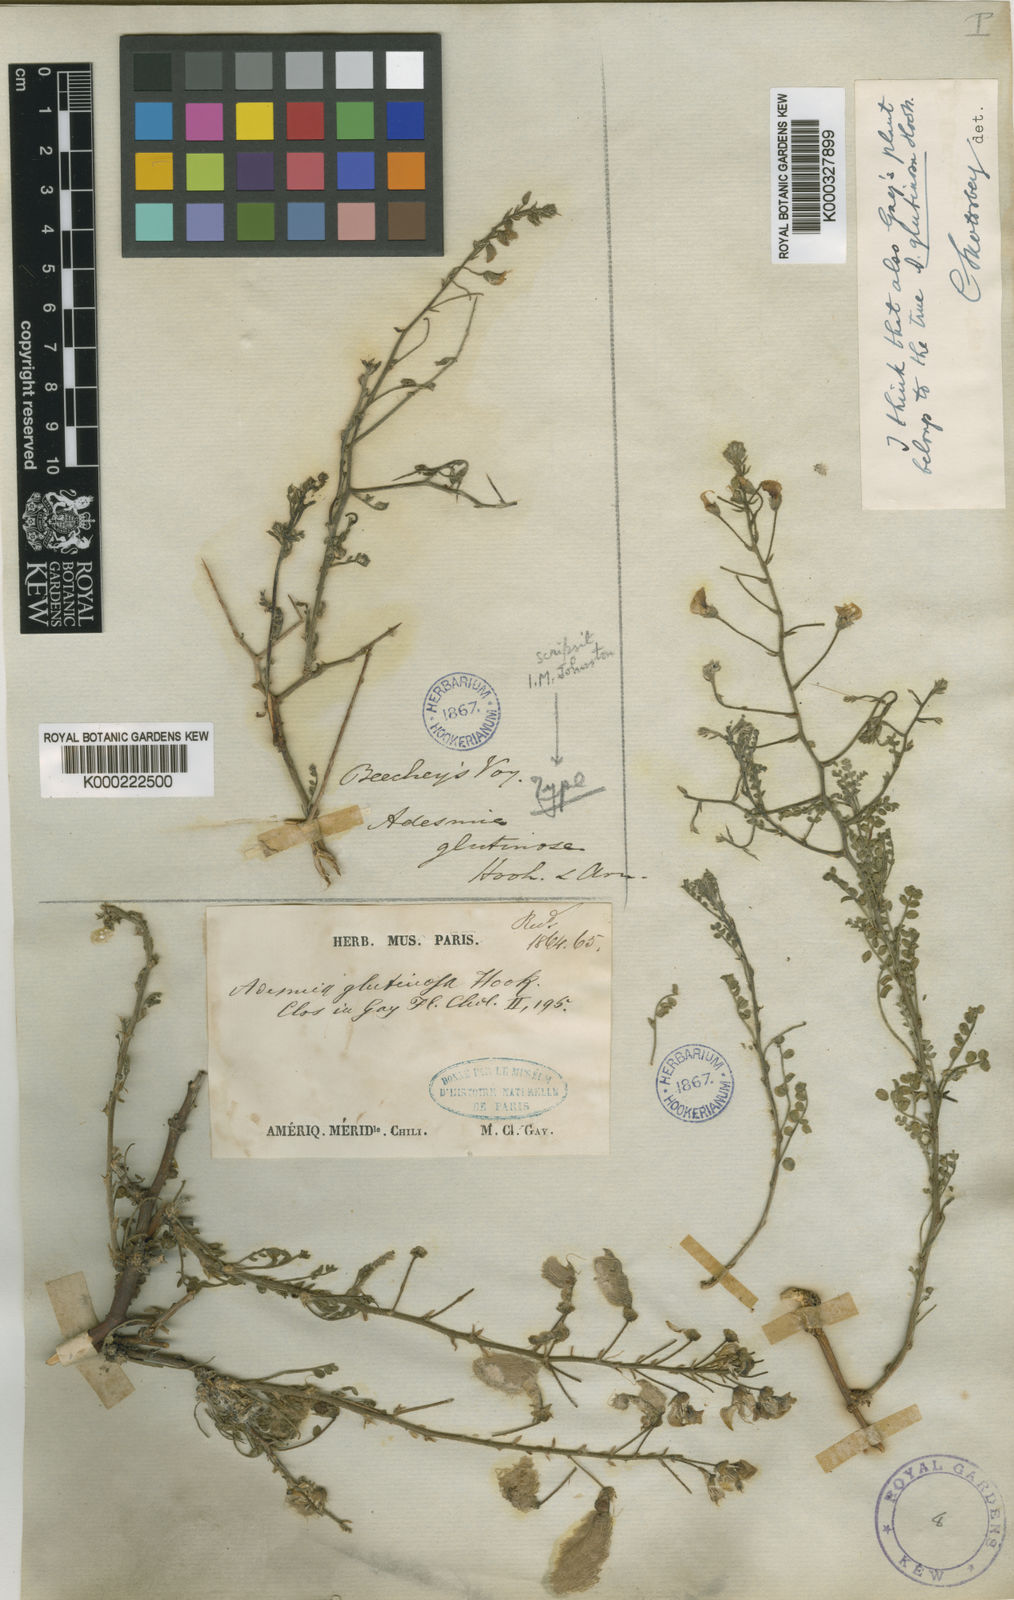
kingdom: Plantae
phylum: Tracheophyta
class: Magnoliopsida
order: Fabales
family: Fabaceae
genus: Adesmia
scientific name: Adesmia glutinosa
